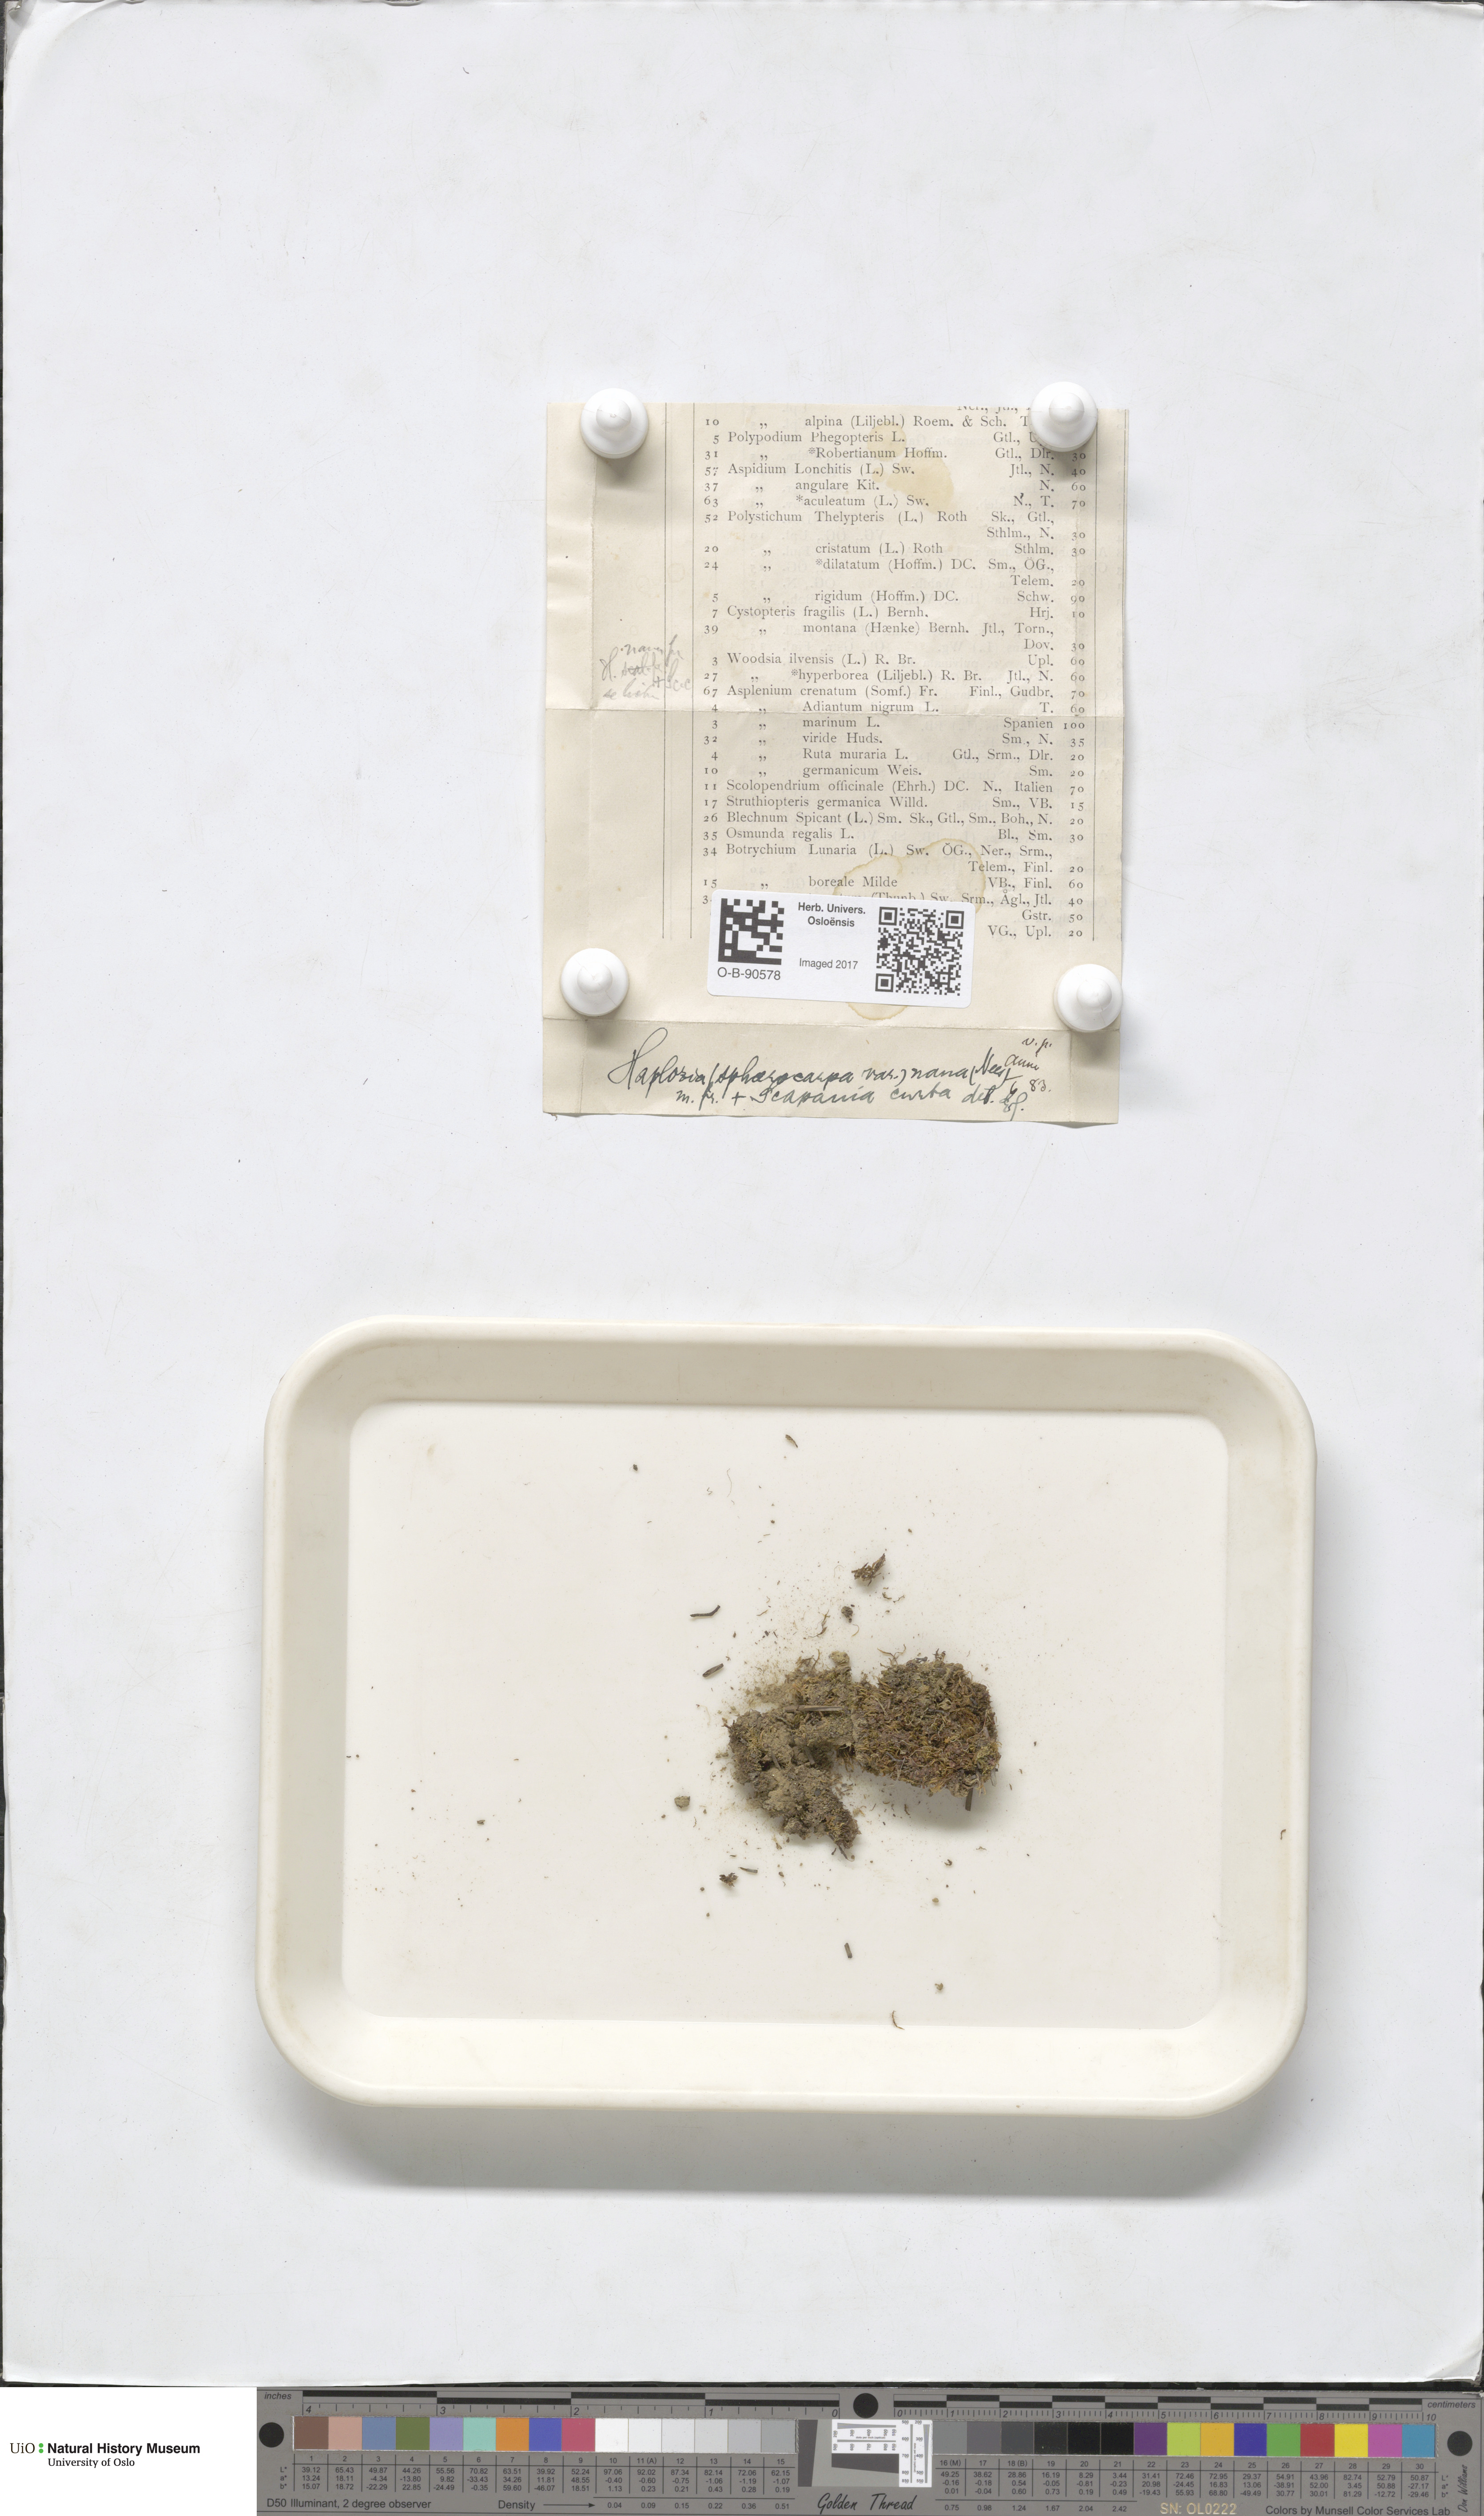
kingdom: Plantae
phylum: Marchantiophyta
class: Jungermanniopsida
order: Jungermanniales
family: Solenostomataceae
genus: Solenostoma
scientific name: Solenostoma sphaerocarpum
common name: Round-fruited flapwort
